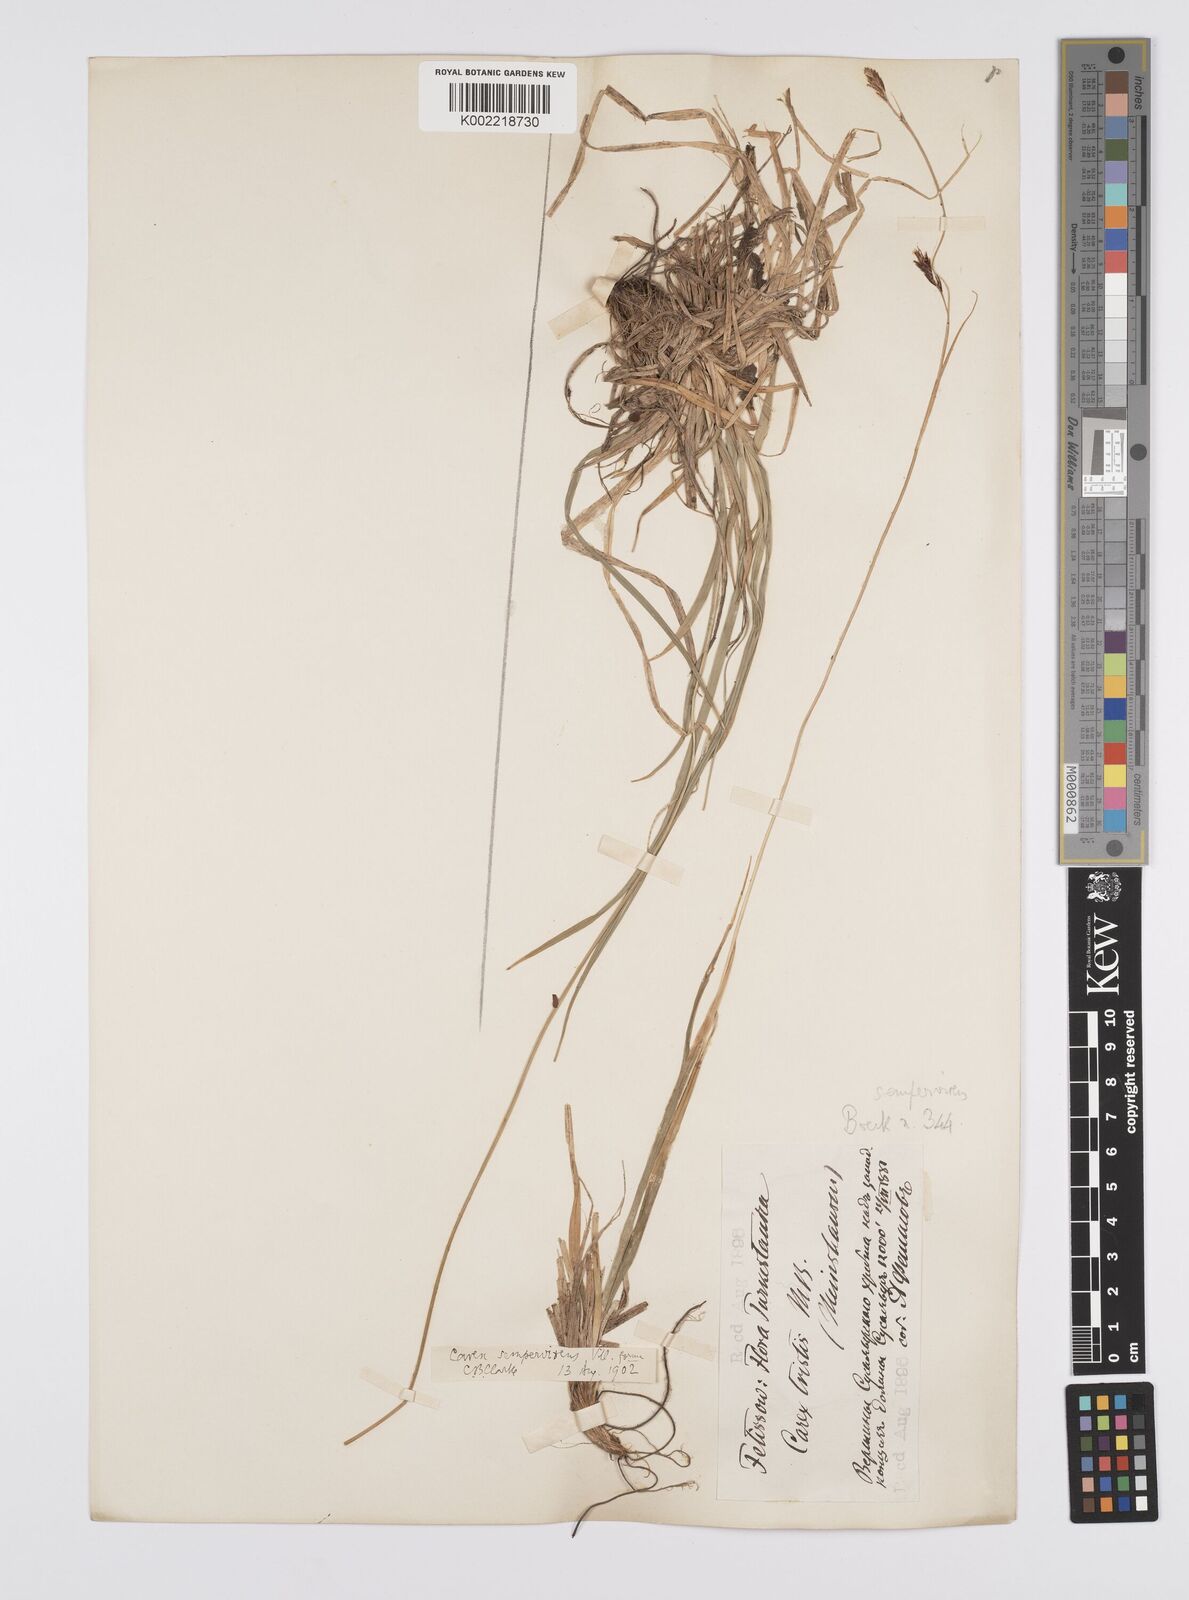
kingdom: Plantae
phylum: Tracheophyta
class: Liliopsida
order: Poales
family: Cyperaceae
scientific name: Cyperaceae
